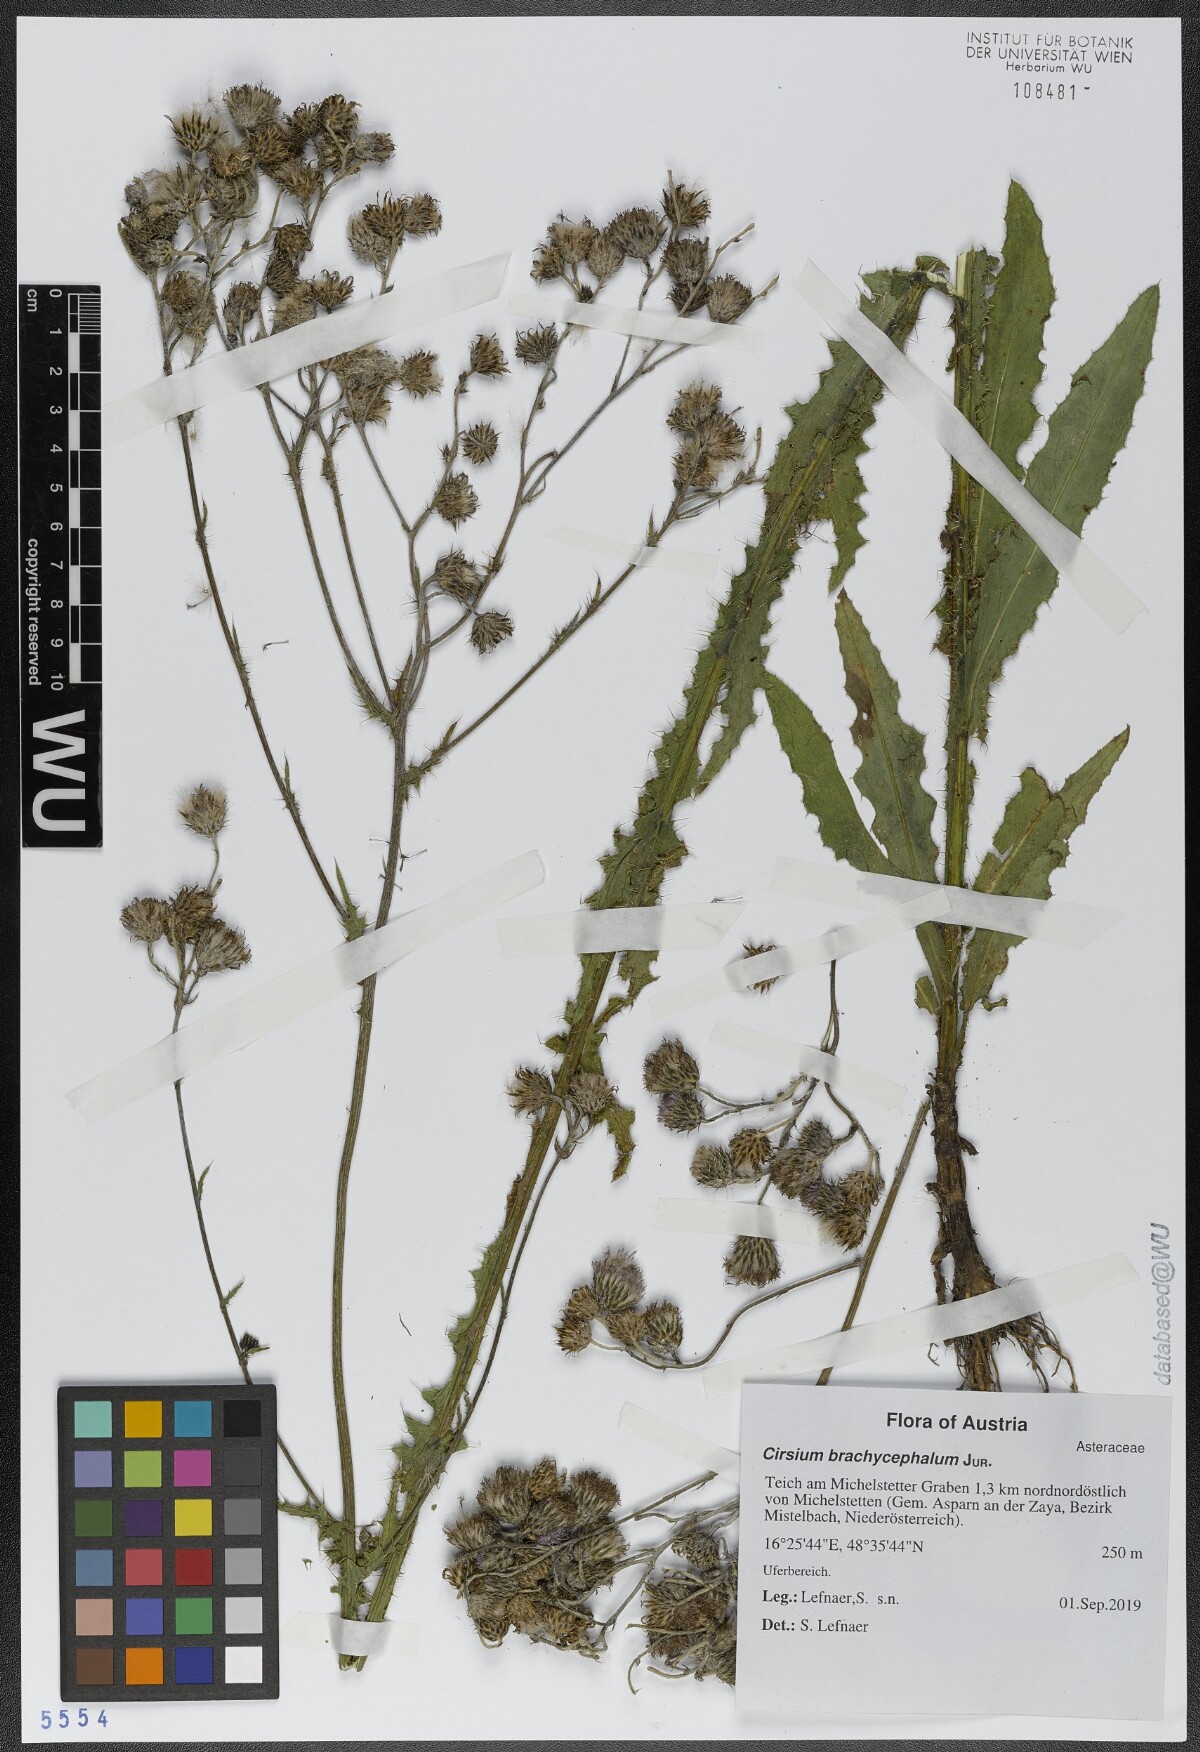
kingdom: Plantae
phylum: Tracheophyta
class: Magnoliopsida
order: Asterales
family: Asteraceae
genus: Cirsium
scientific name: Cirsium brachycephalum
